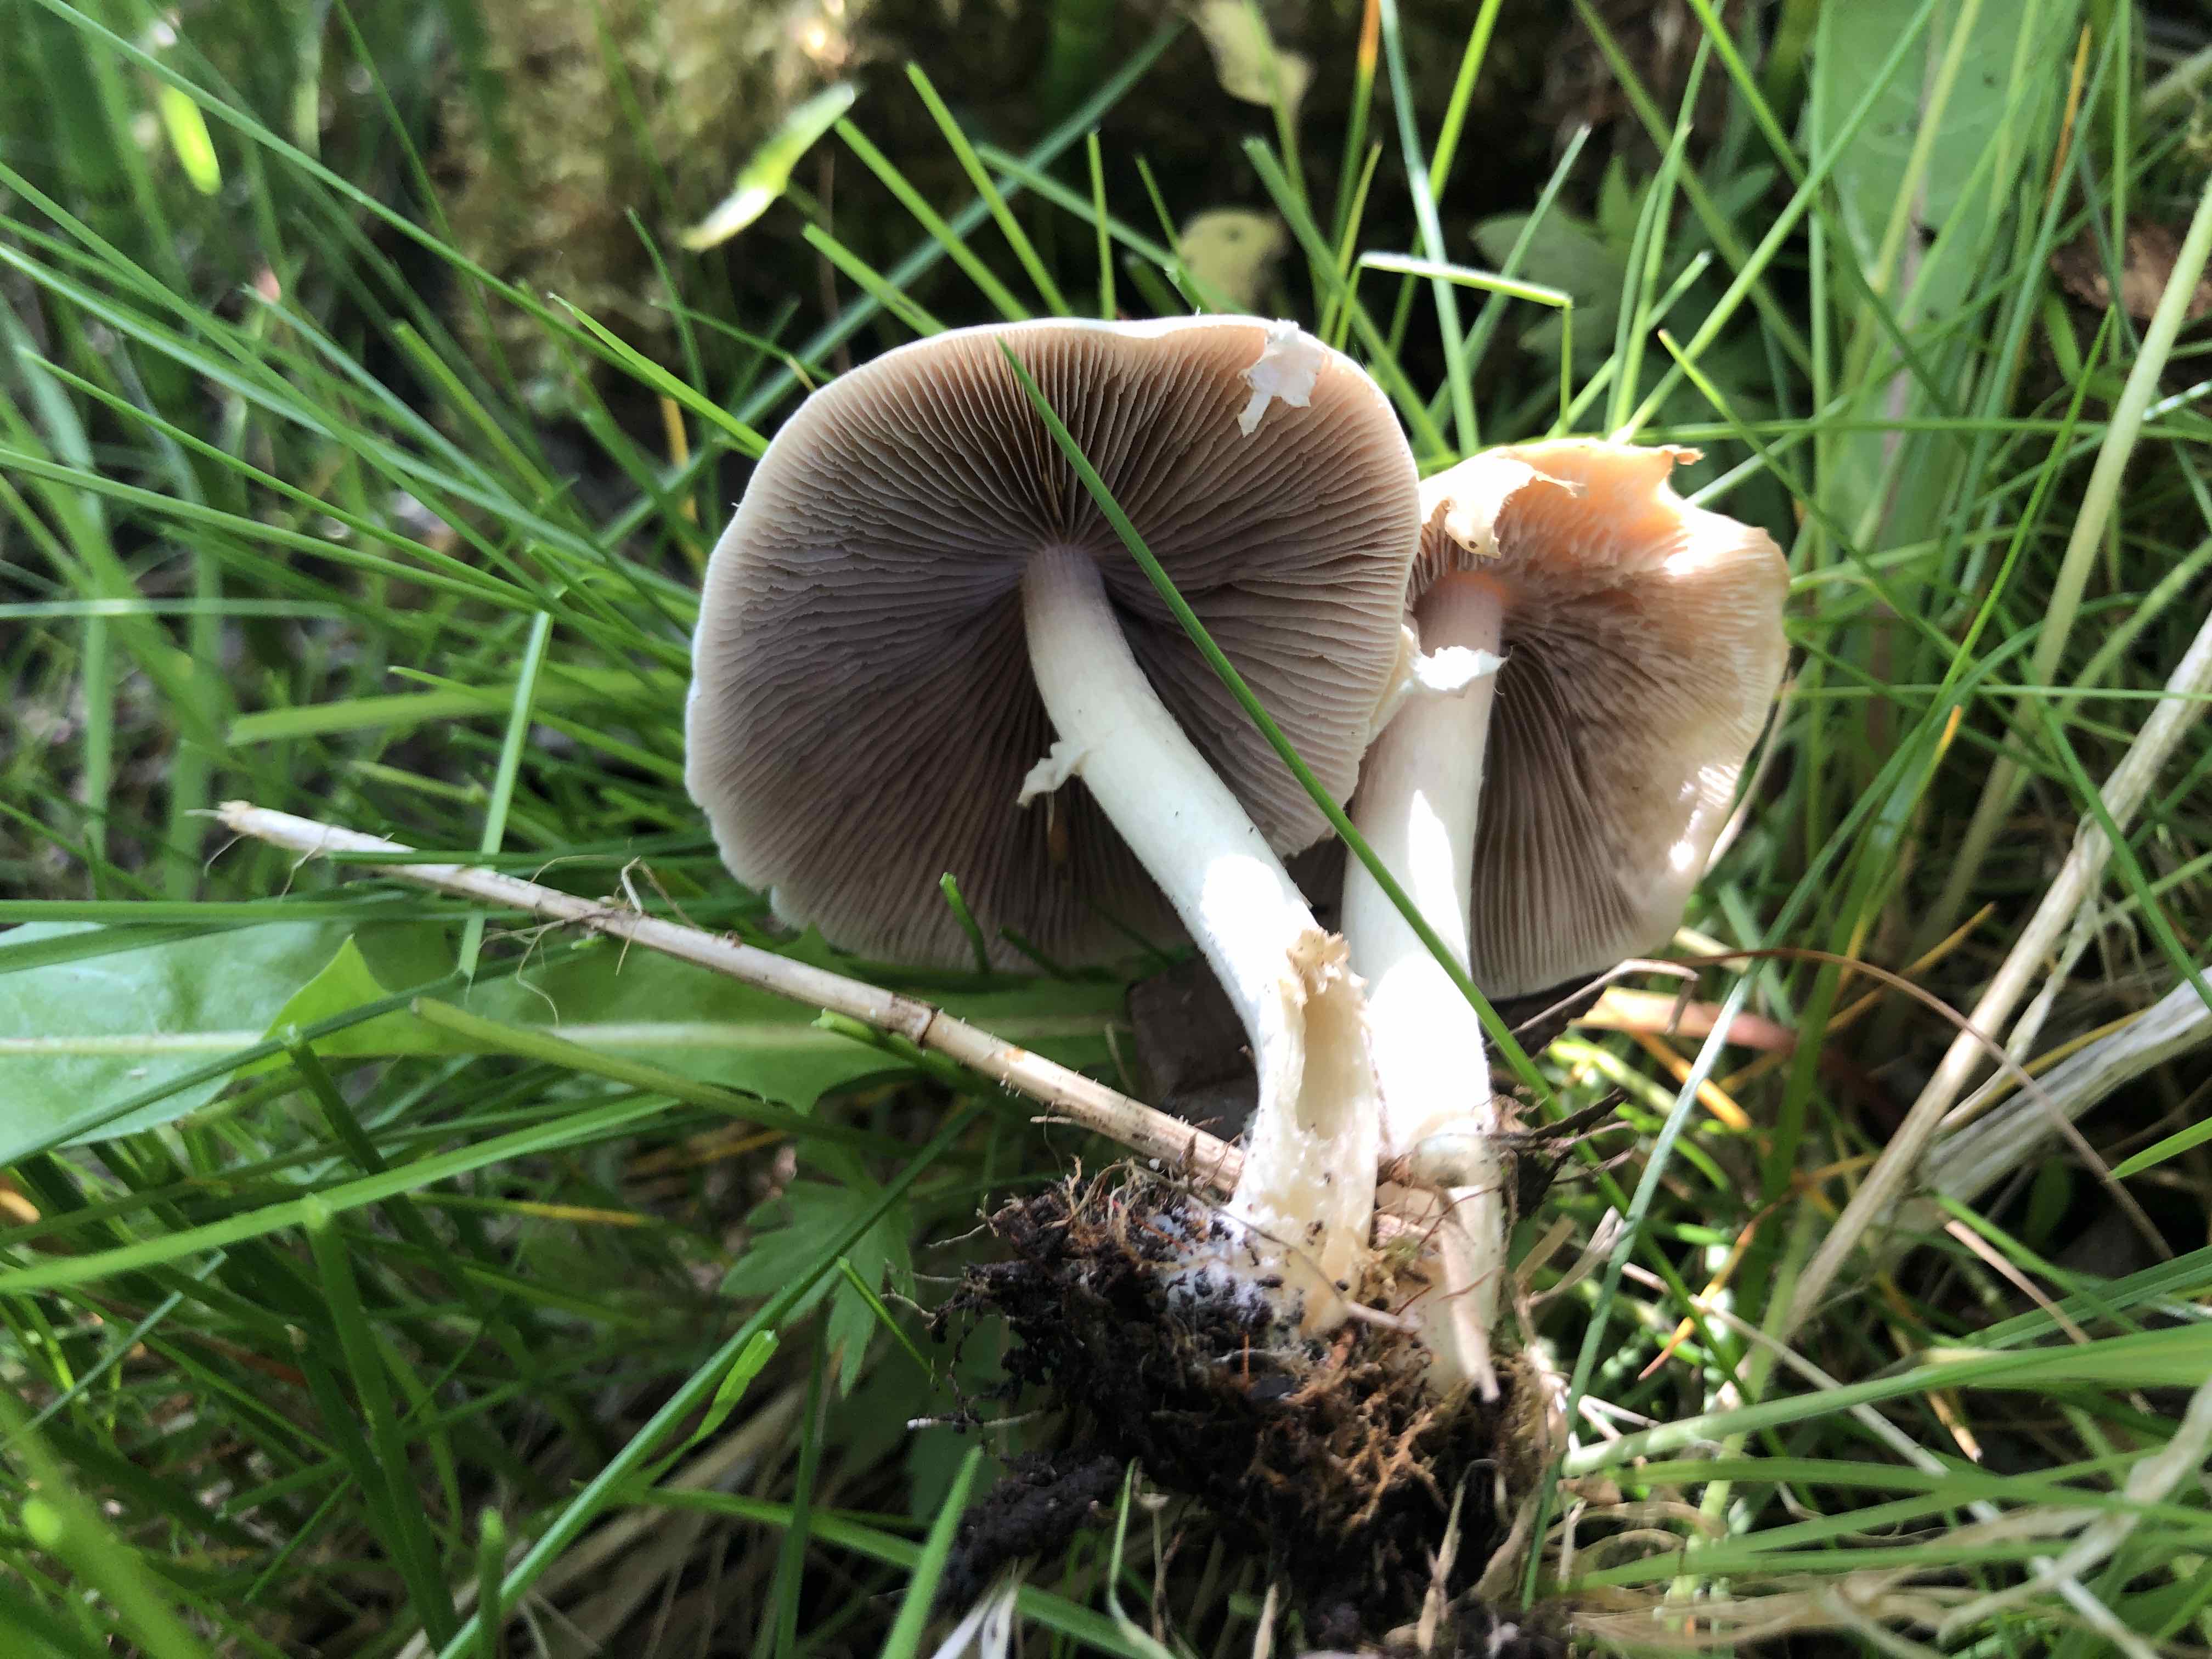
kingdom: Fungi
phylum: Basidiomycota
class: Agaricomycetes
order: Agaricales
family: Psathyrellaceae
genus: Candolleomyces
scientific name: Candolleomyces candolleanus
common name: Candolles mørkhat
